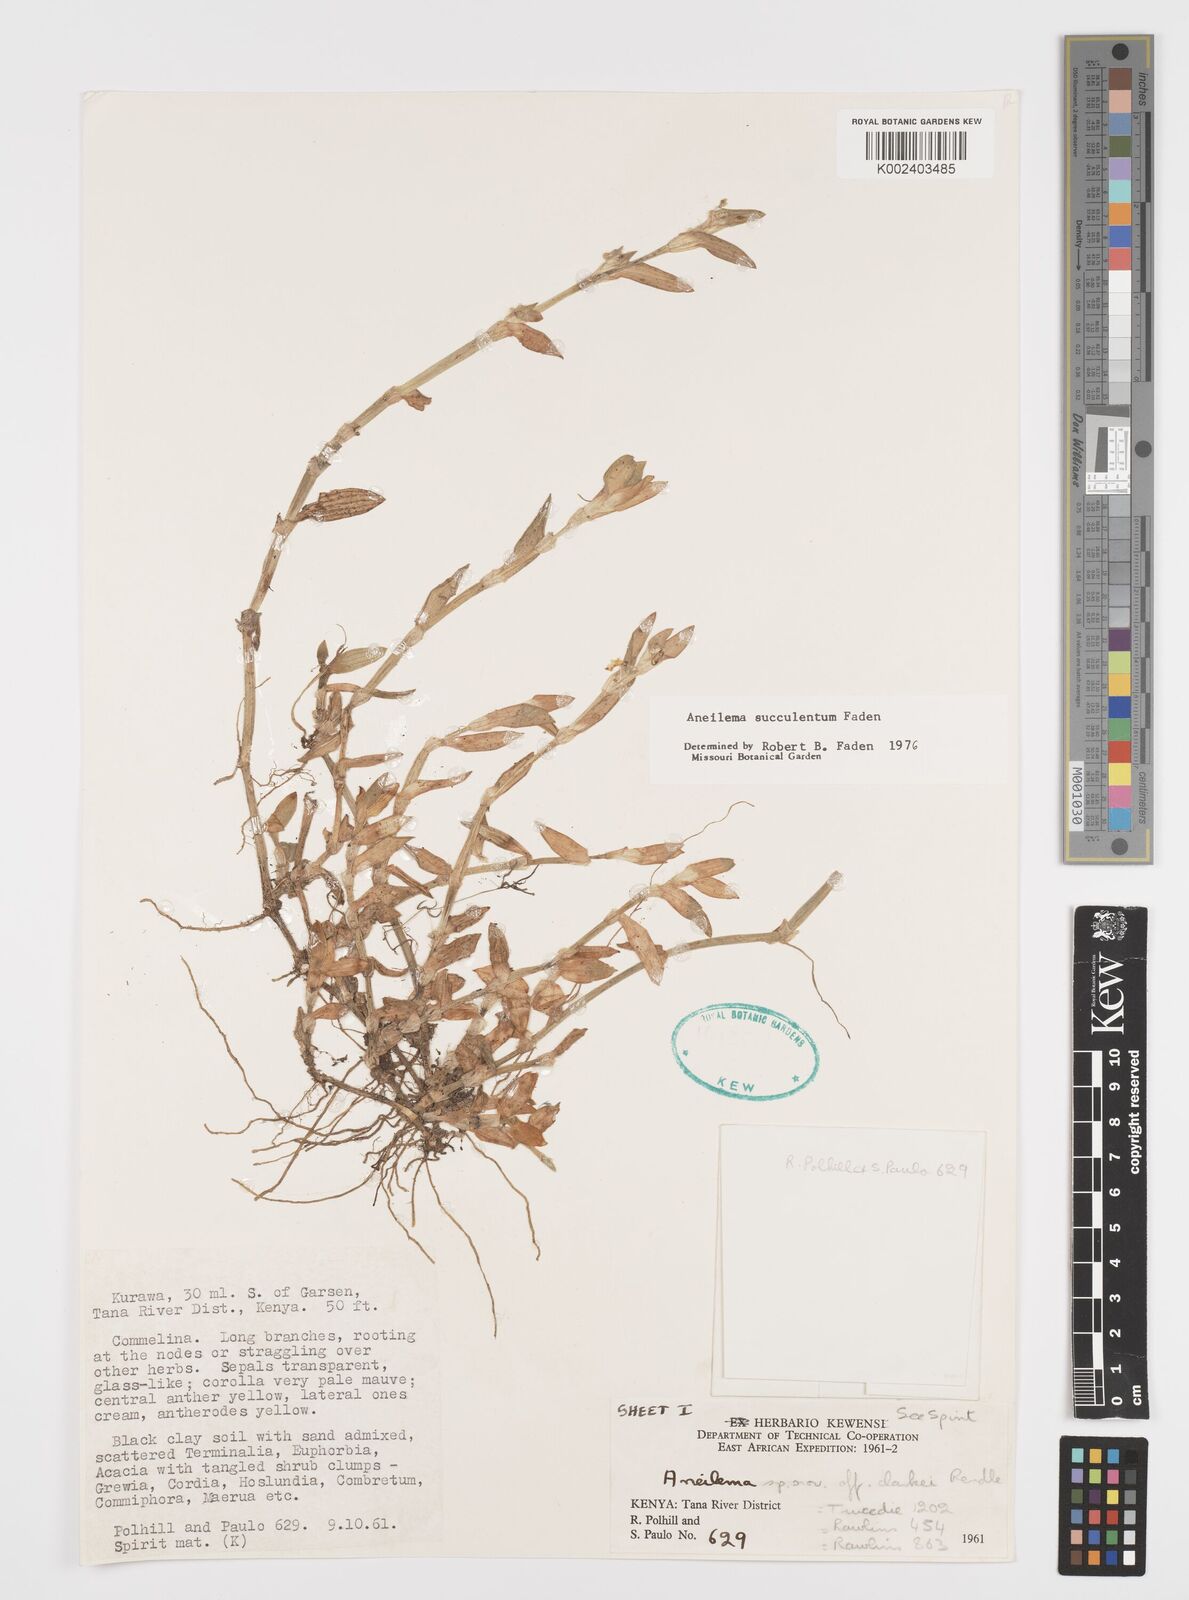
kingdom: Plantae
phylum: Tracheophyta
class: Liliopsida
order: Commelinales
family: Commelinaceae
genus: Aneilema
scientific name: Aneilema succulentum
